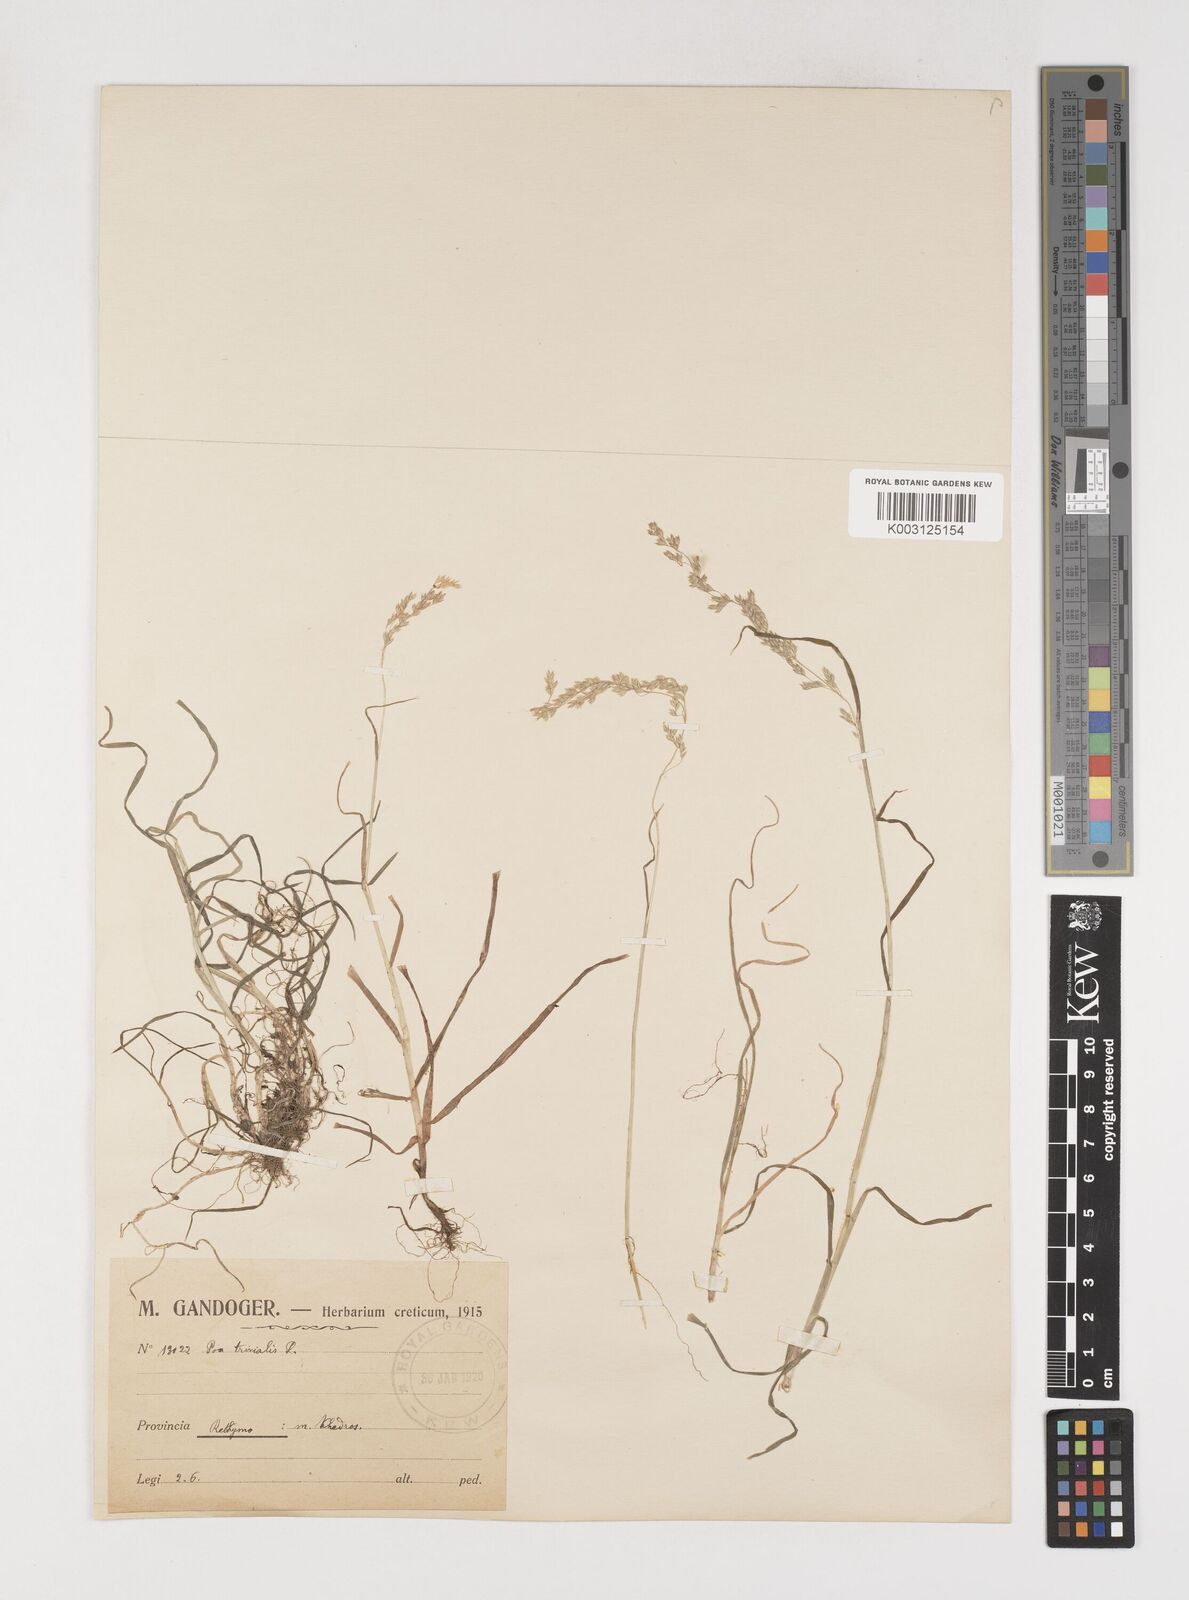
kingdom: Plantae
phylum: Tracheophyta
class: Liliopsida
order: Poales
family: Poaceae
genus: Poa
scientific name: Poa trivialis
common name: Rough bluegrass
